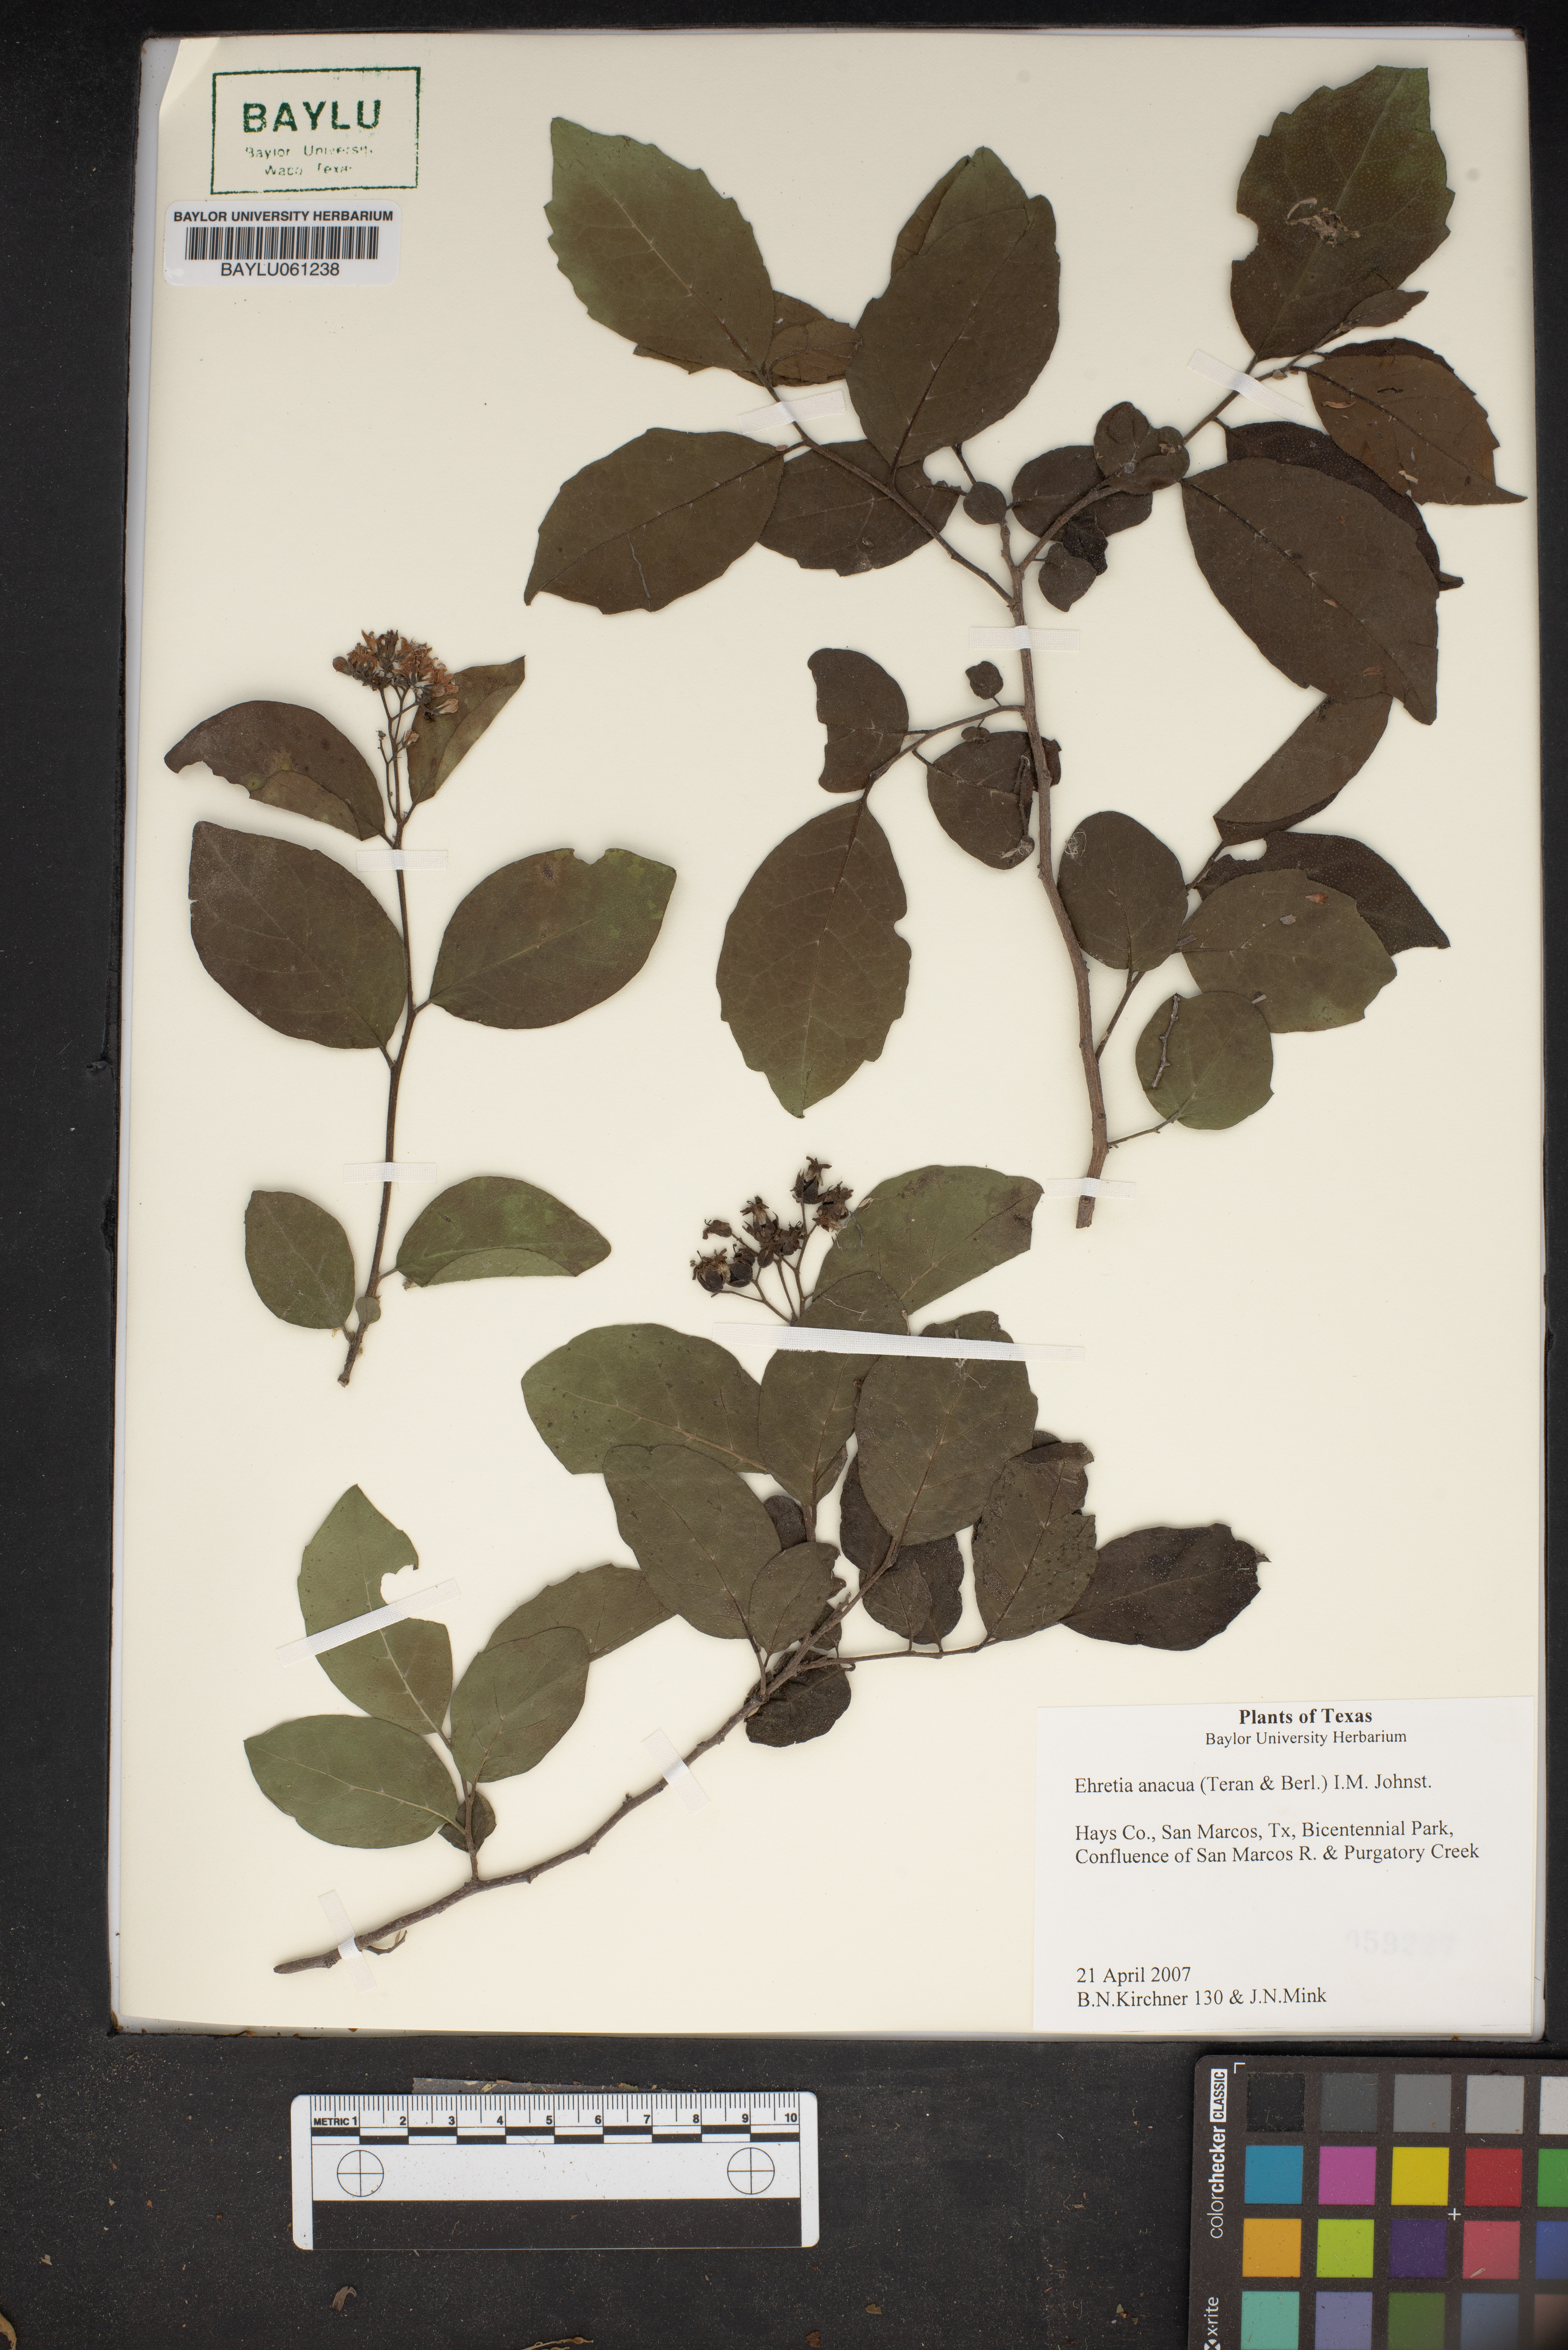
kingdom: Plantae
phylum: Tracheophyta
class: Magnoliopsida
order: Boraginales
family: Ehretiaceae
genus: Ehretia
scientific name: Ehretia anacua
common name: Sugarberry
